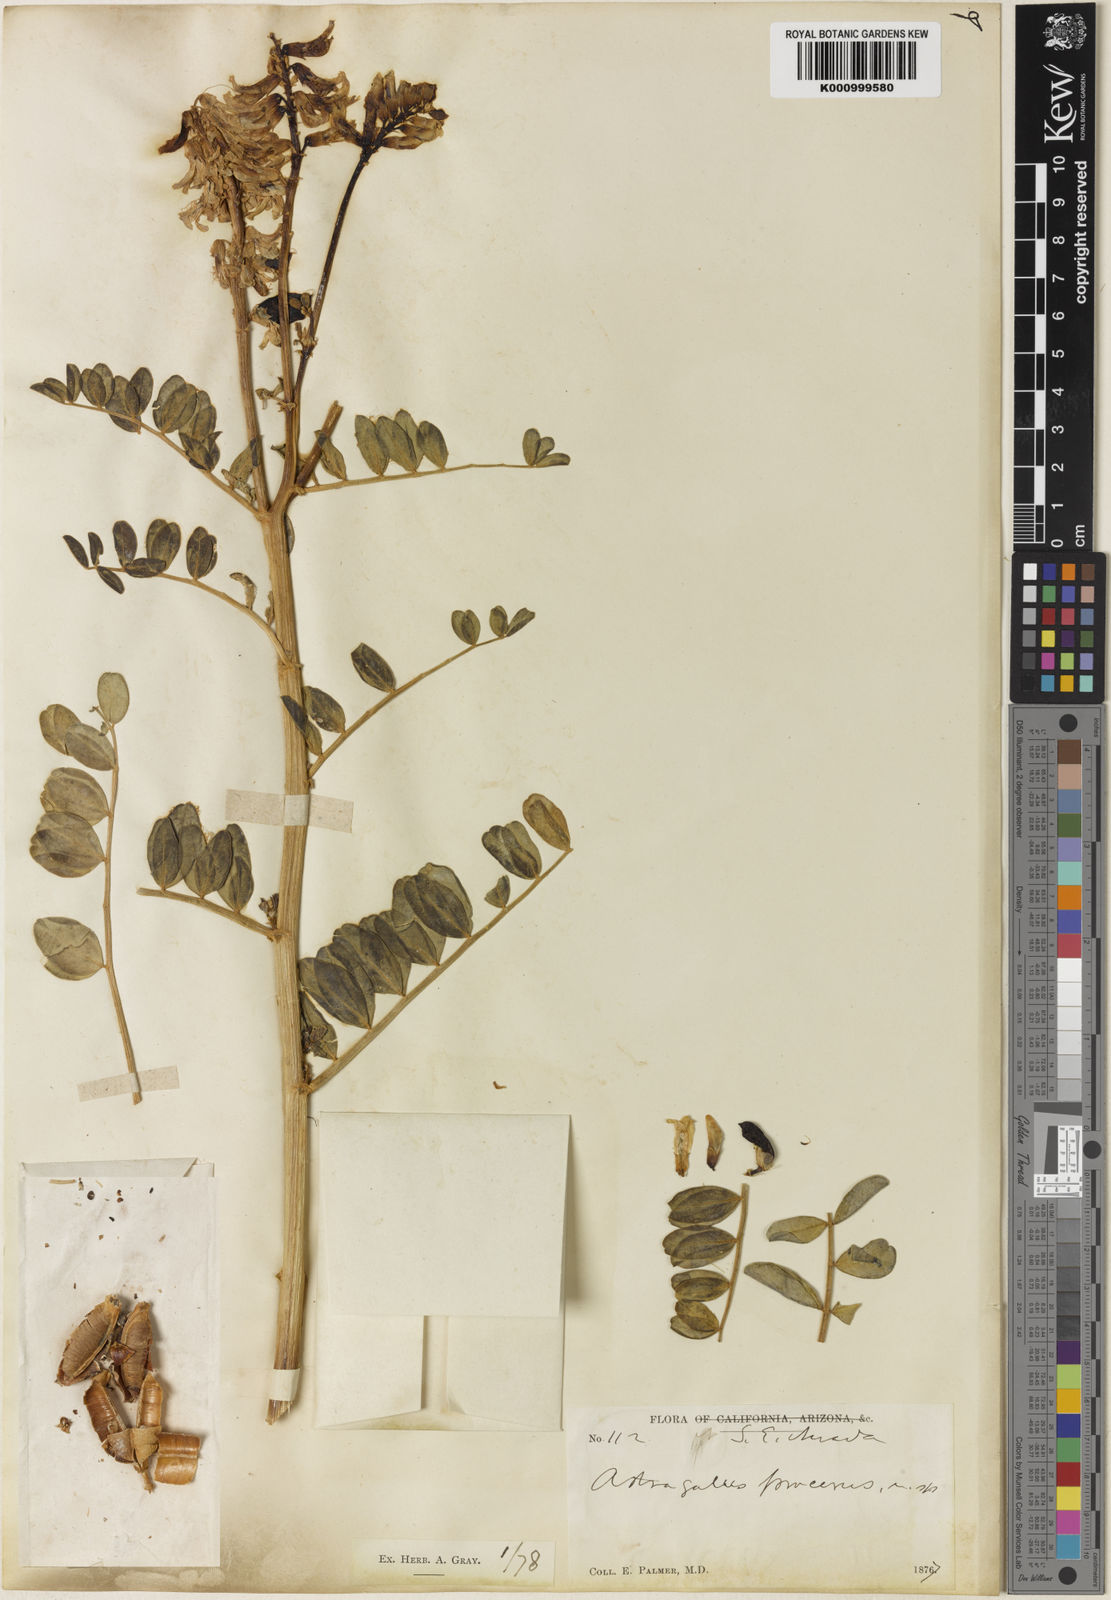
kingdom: Plantae
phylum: Tracheophyta
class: Magnoliopsida
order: Fabales
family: Fabaceae
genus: Astragalus
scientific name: Astragalus procerus
